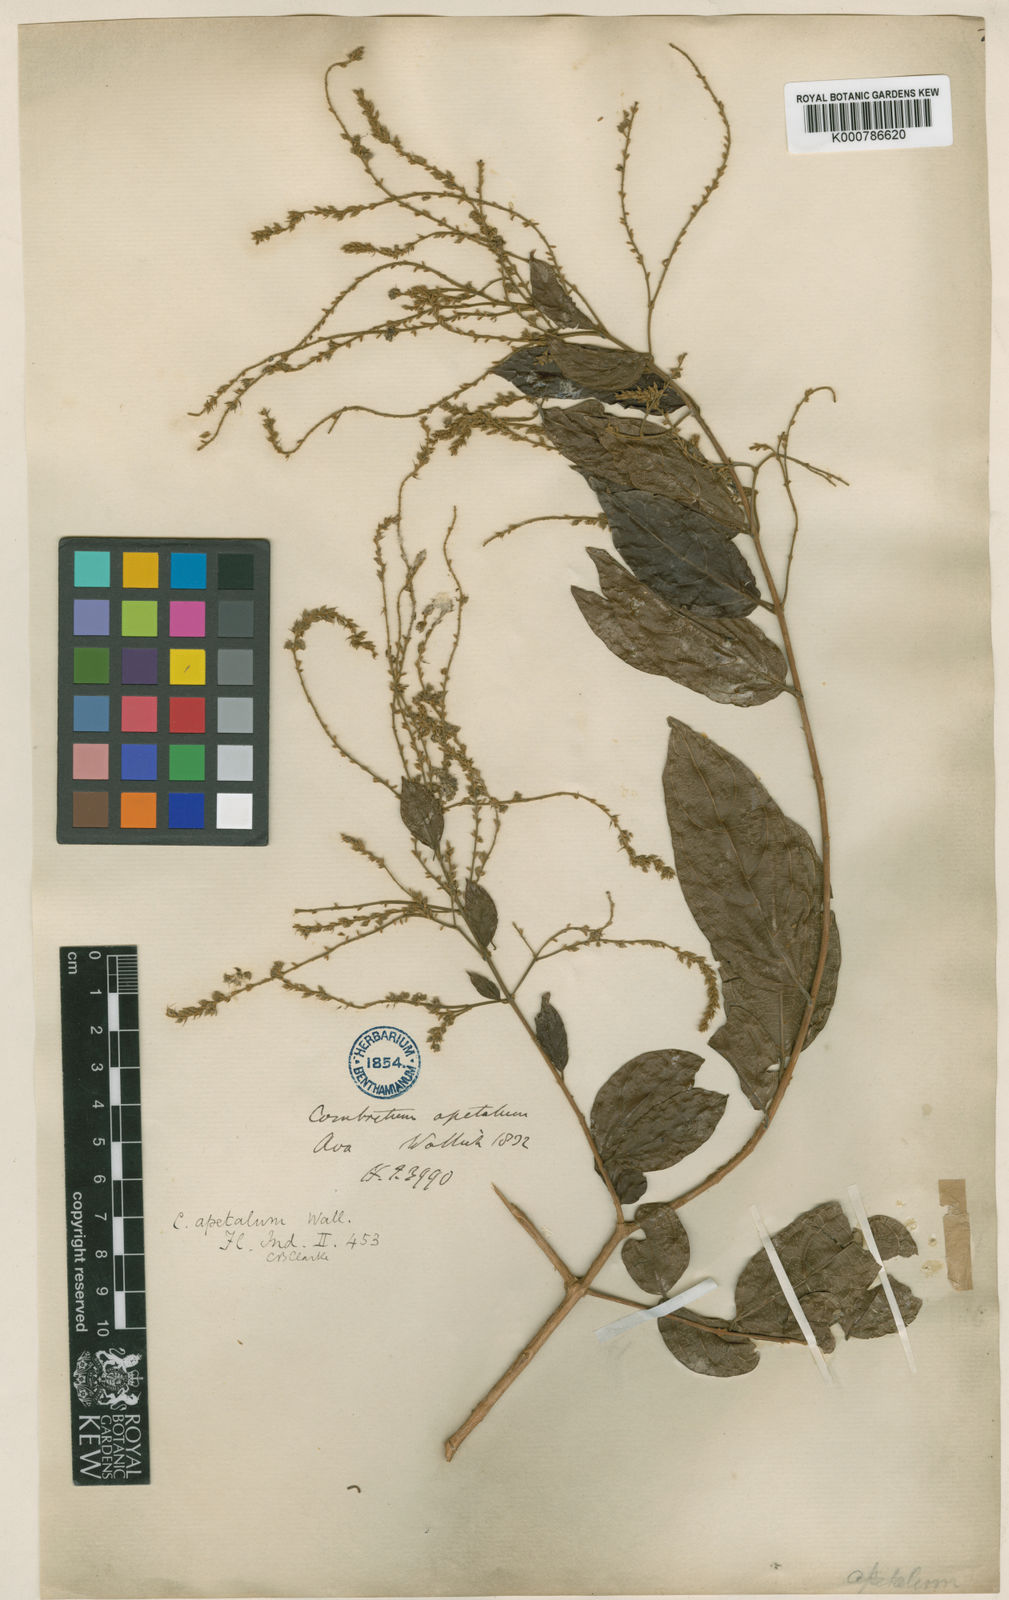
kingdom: Plantae
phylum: Tracheophyta
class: Magnoliopsida
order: Myrtales
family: Combretaceae
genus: Combretum
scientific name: Combretum
